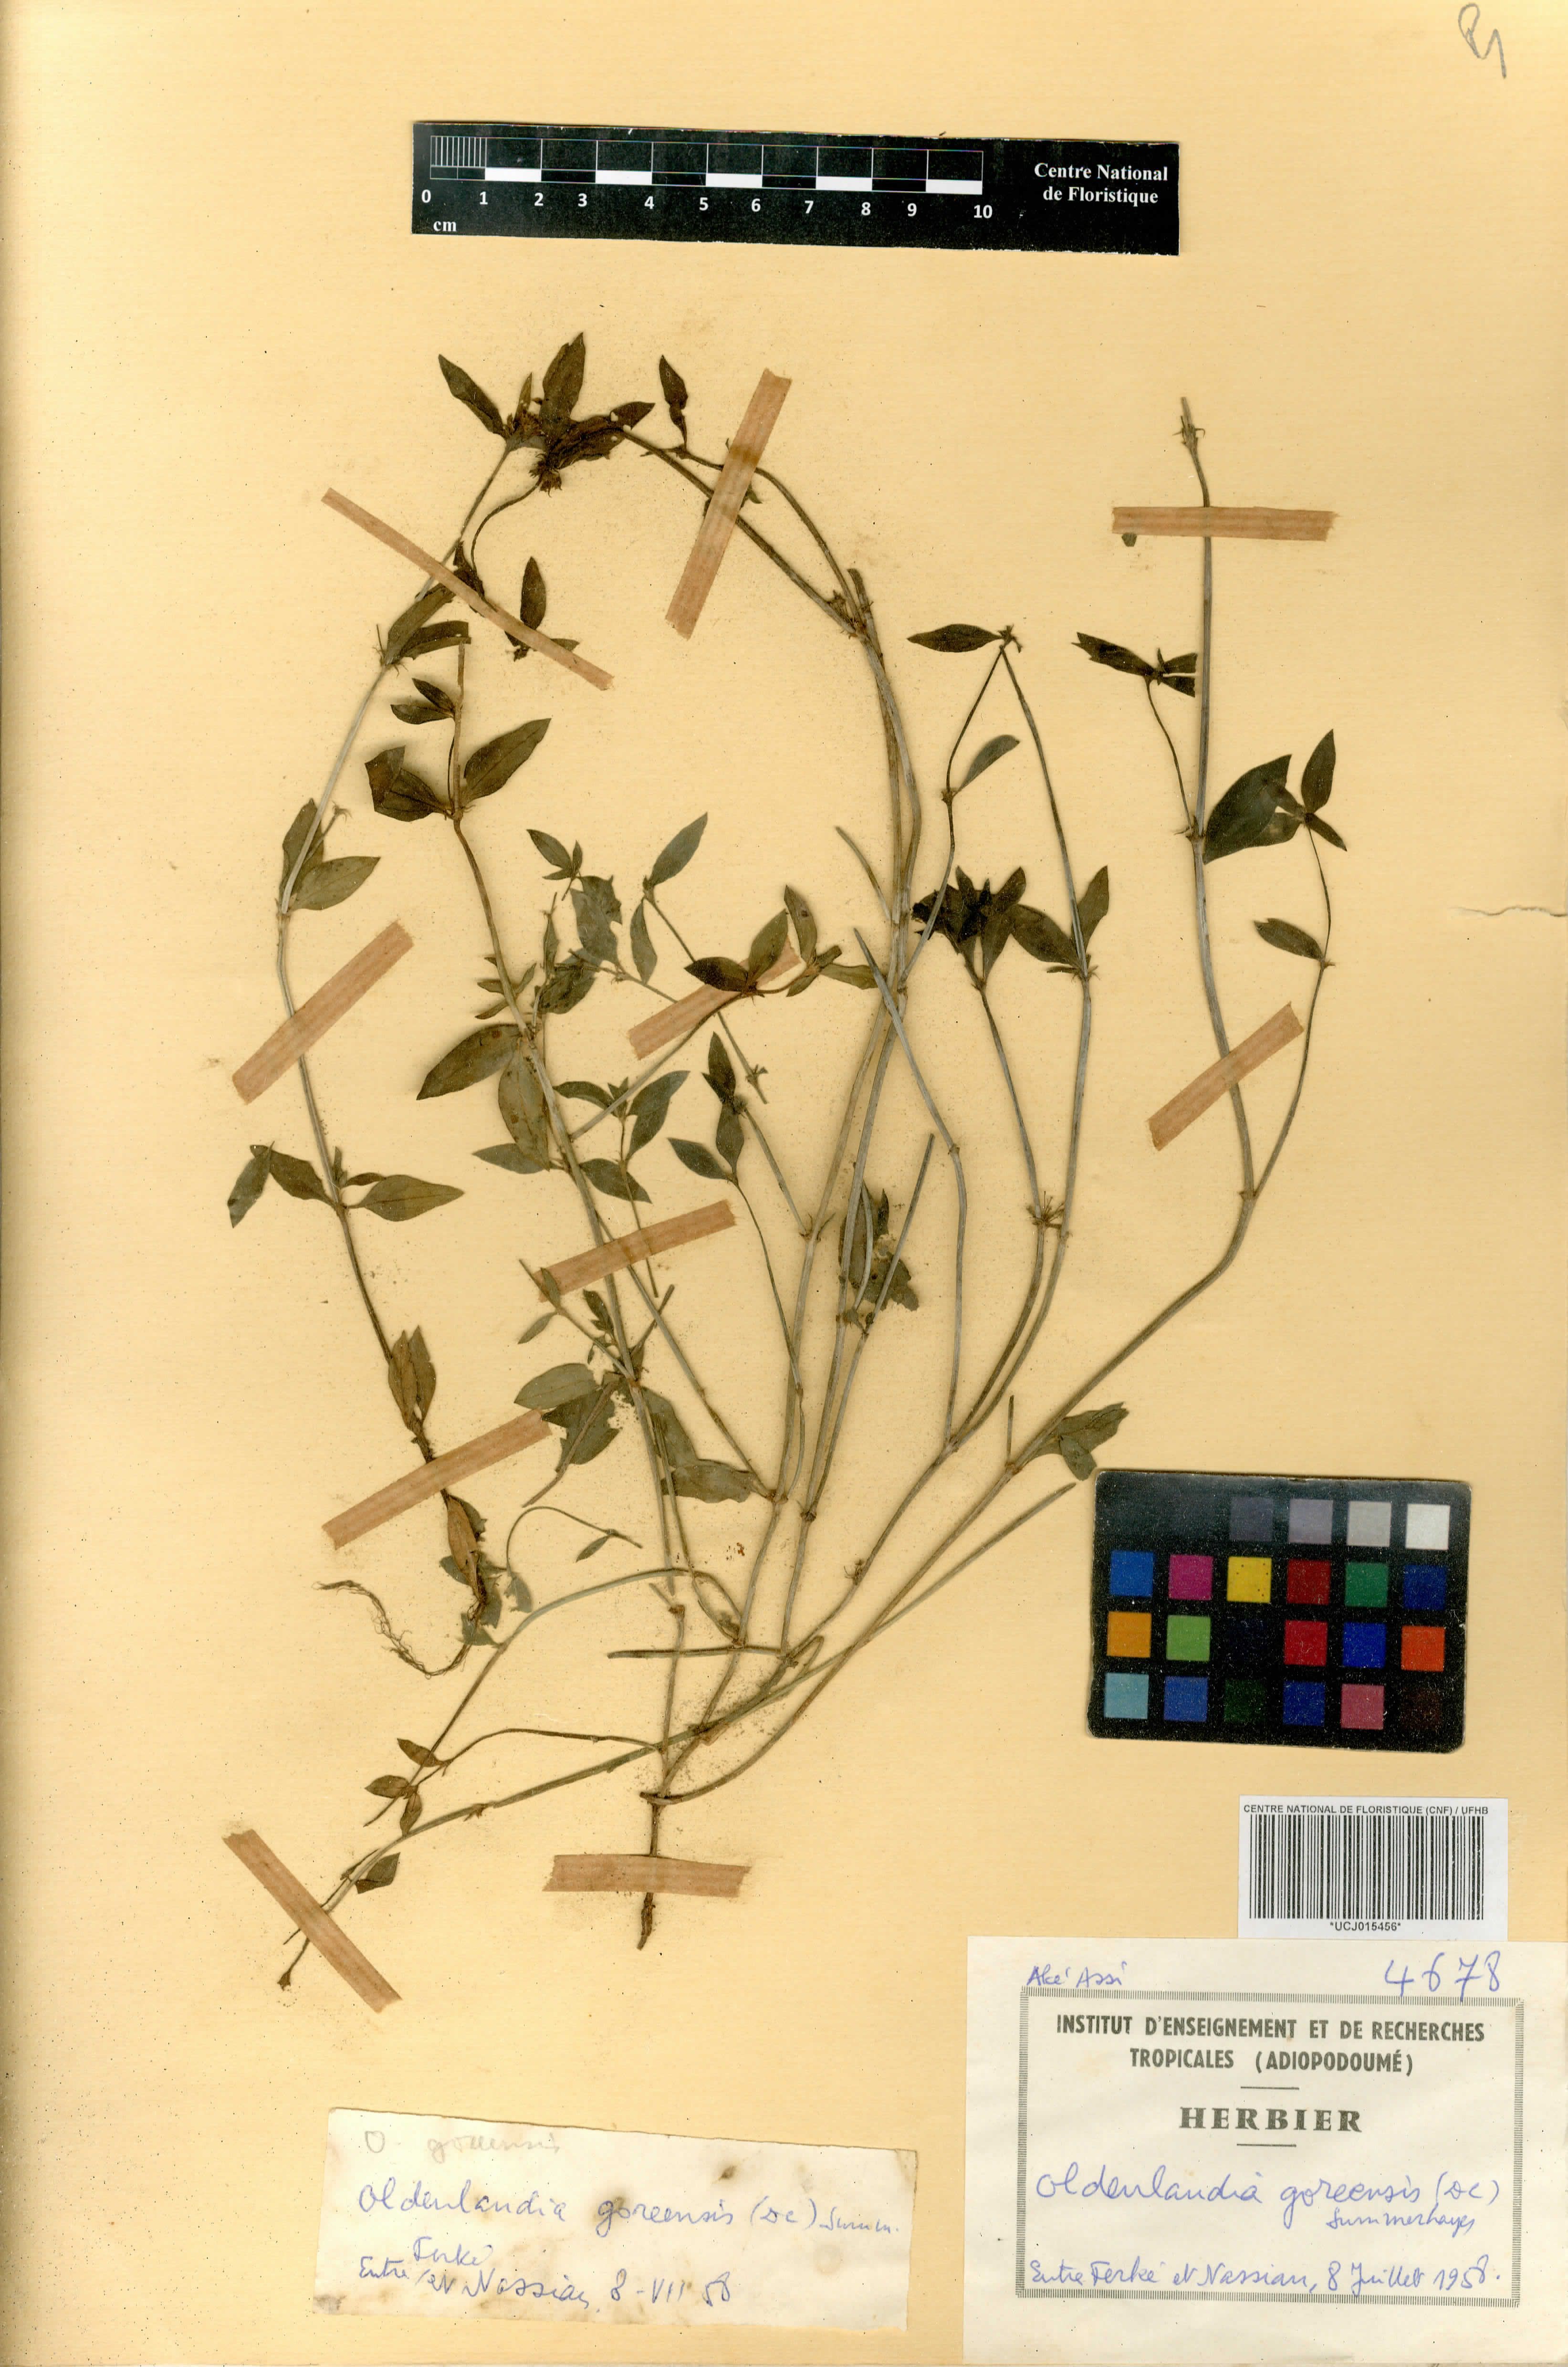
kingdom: Plantae
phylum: Tracheophyta
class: Magnoliopsida
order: Gentianales
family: Rubiaceae
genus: Edrastima
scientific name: Edrastima goreensis
